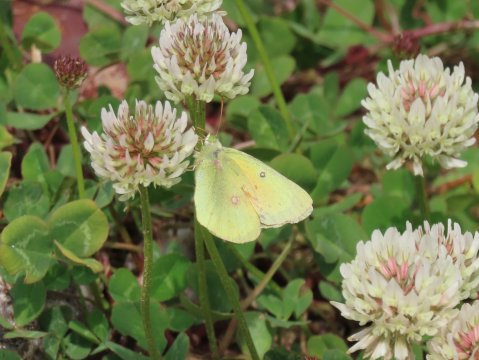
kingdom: Animalia
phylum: Arthropoda
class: Insecta
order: Lepidoptera
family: Pieridae
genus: Colias
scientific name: Colias eurytheme
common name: Orange Sulphur
